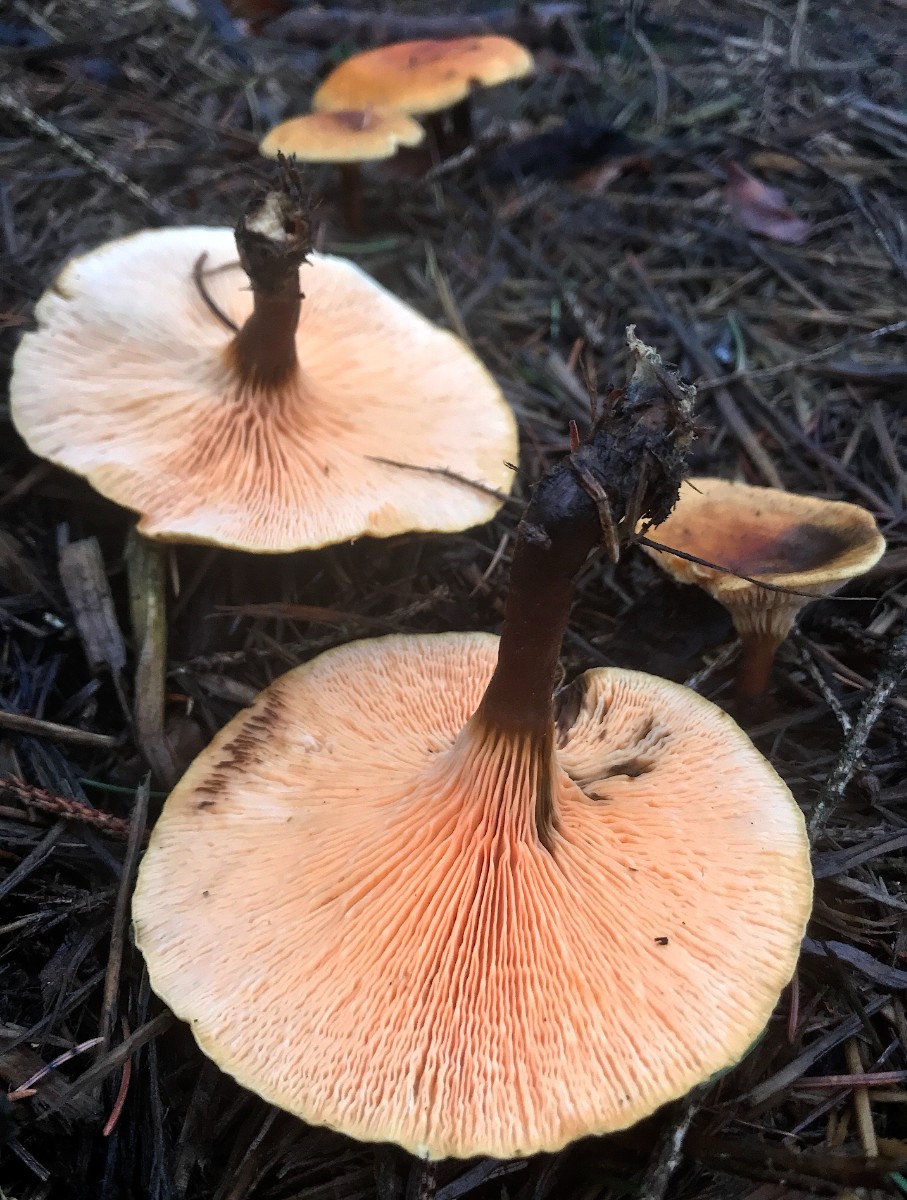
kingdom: Fungi
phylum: Basidiomycota
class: Agaricomycetes
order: Boletales
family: Hygrophoropsidaceae
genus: Hygrophoropsis
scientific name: Hygrophoropsis aurantiaca
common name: almindelig orangekantarel
